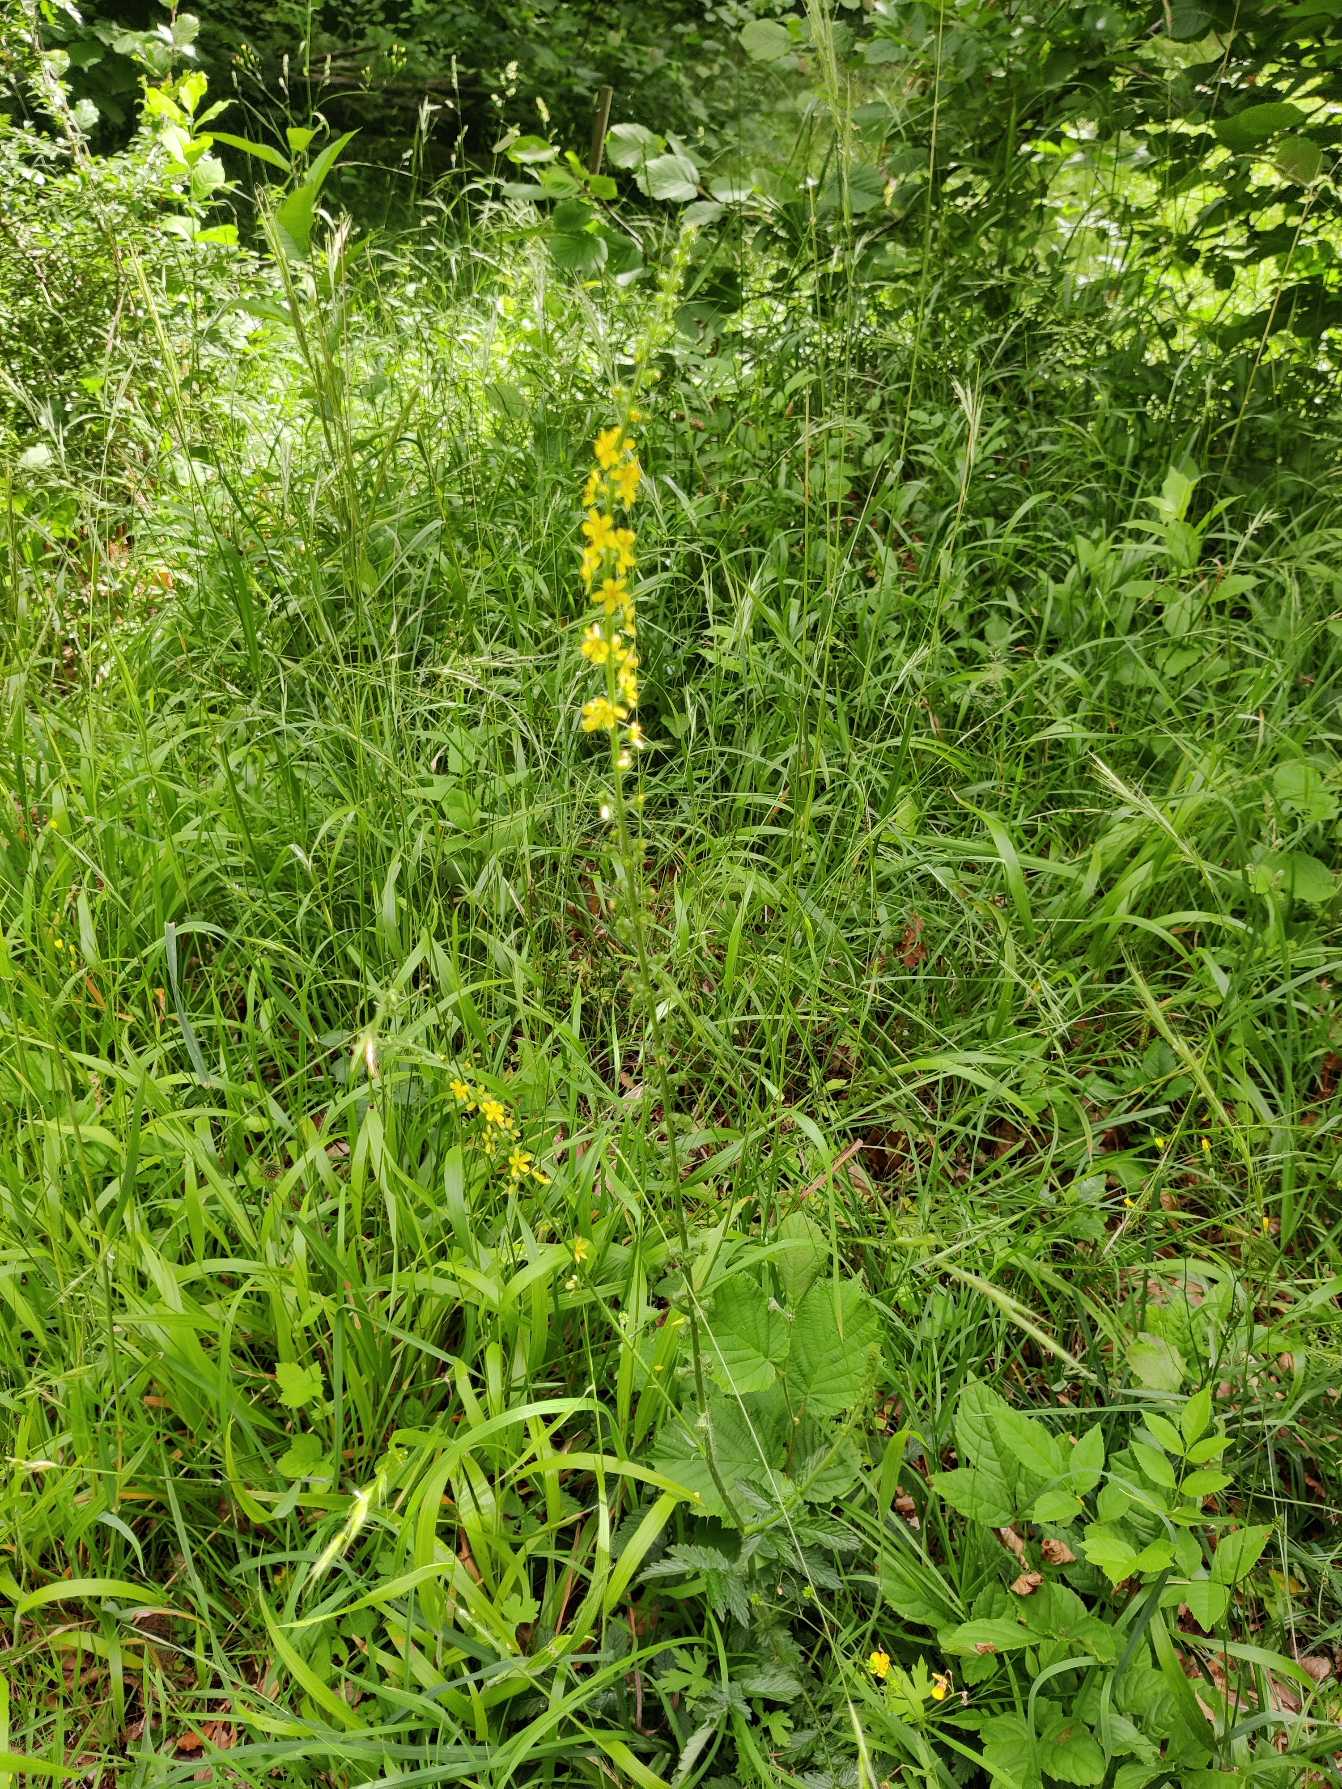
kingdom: Plantae
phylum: Tracheophyta
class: Magnoliopsida
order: Rosales
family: Rosaceae
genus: Agrimonia
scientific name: Agrimonia eupatoria
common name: Almindelig agermåne
